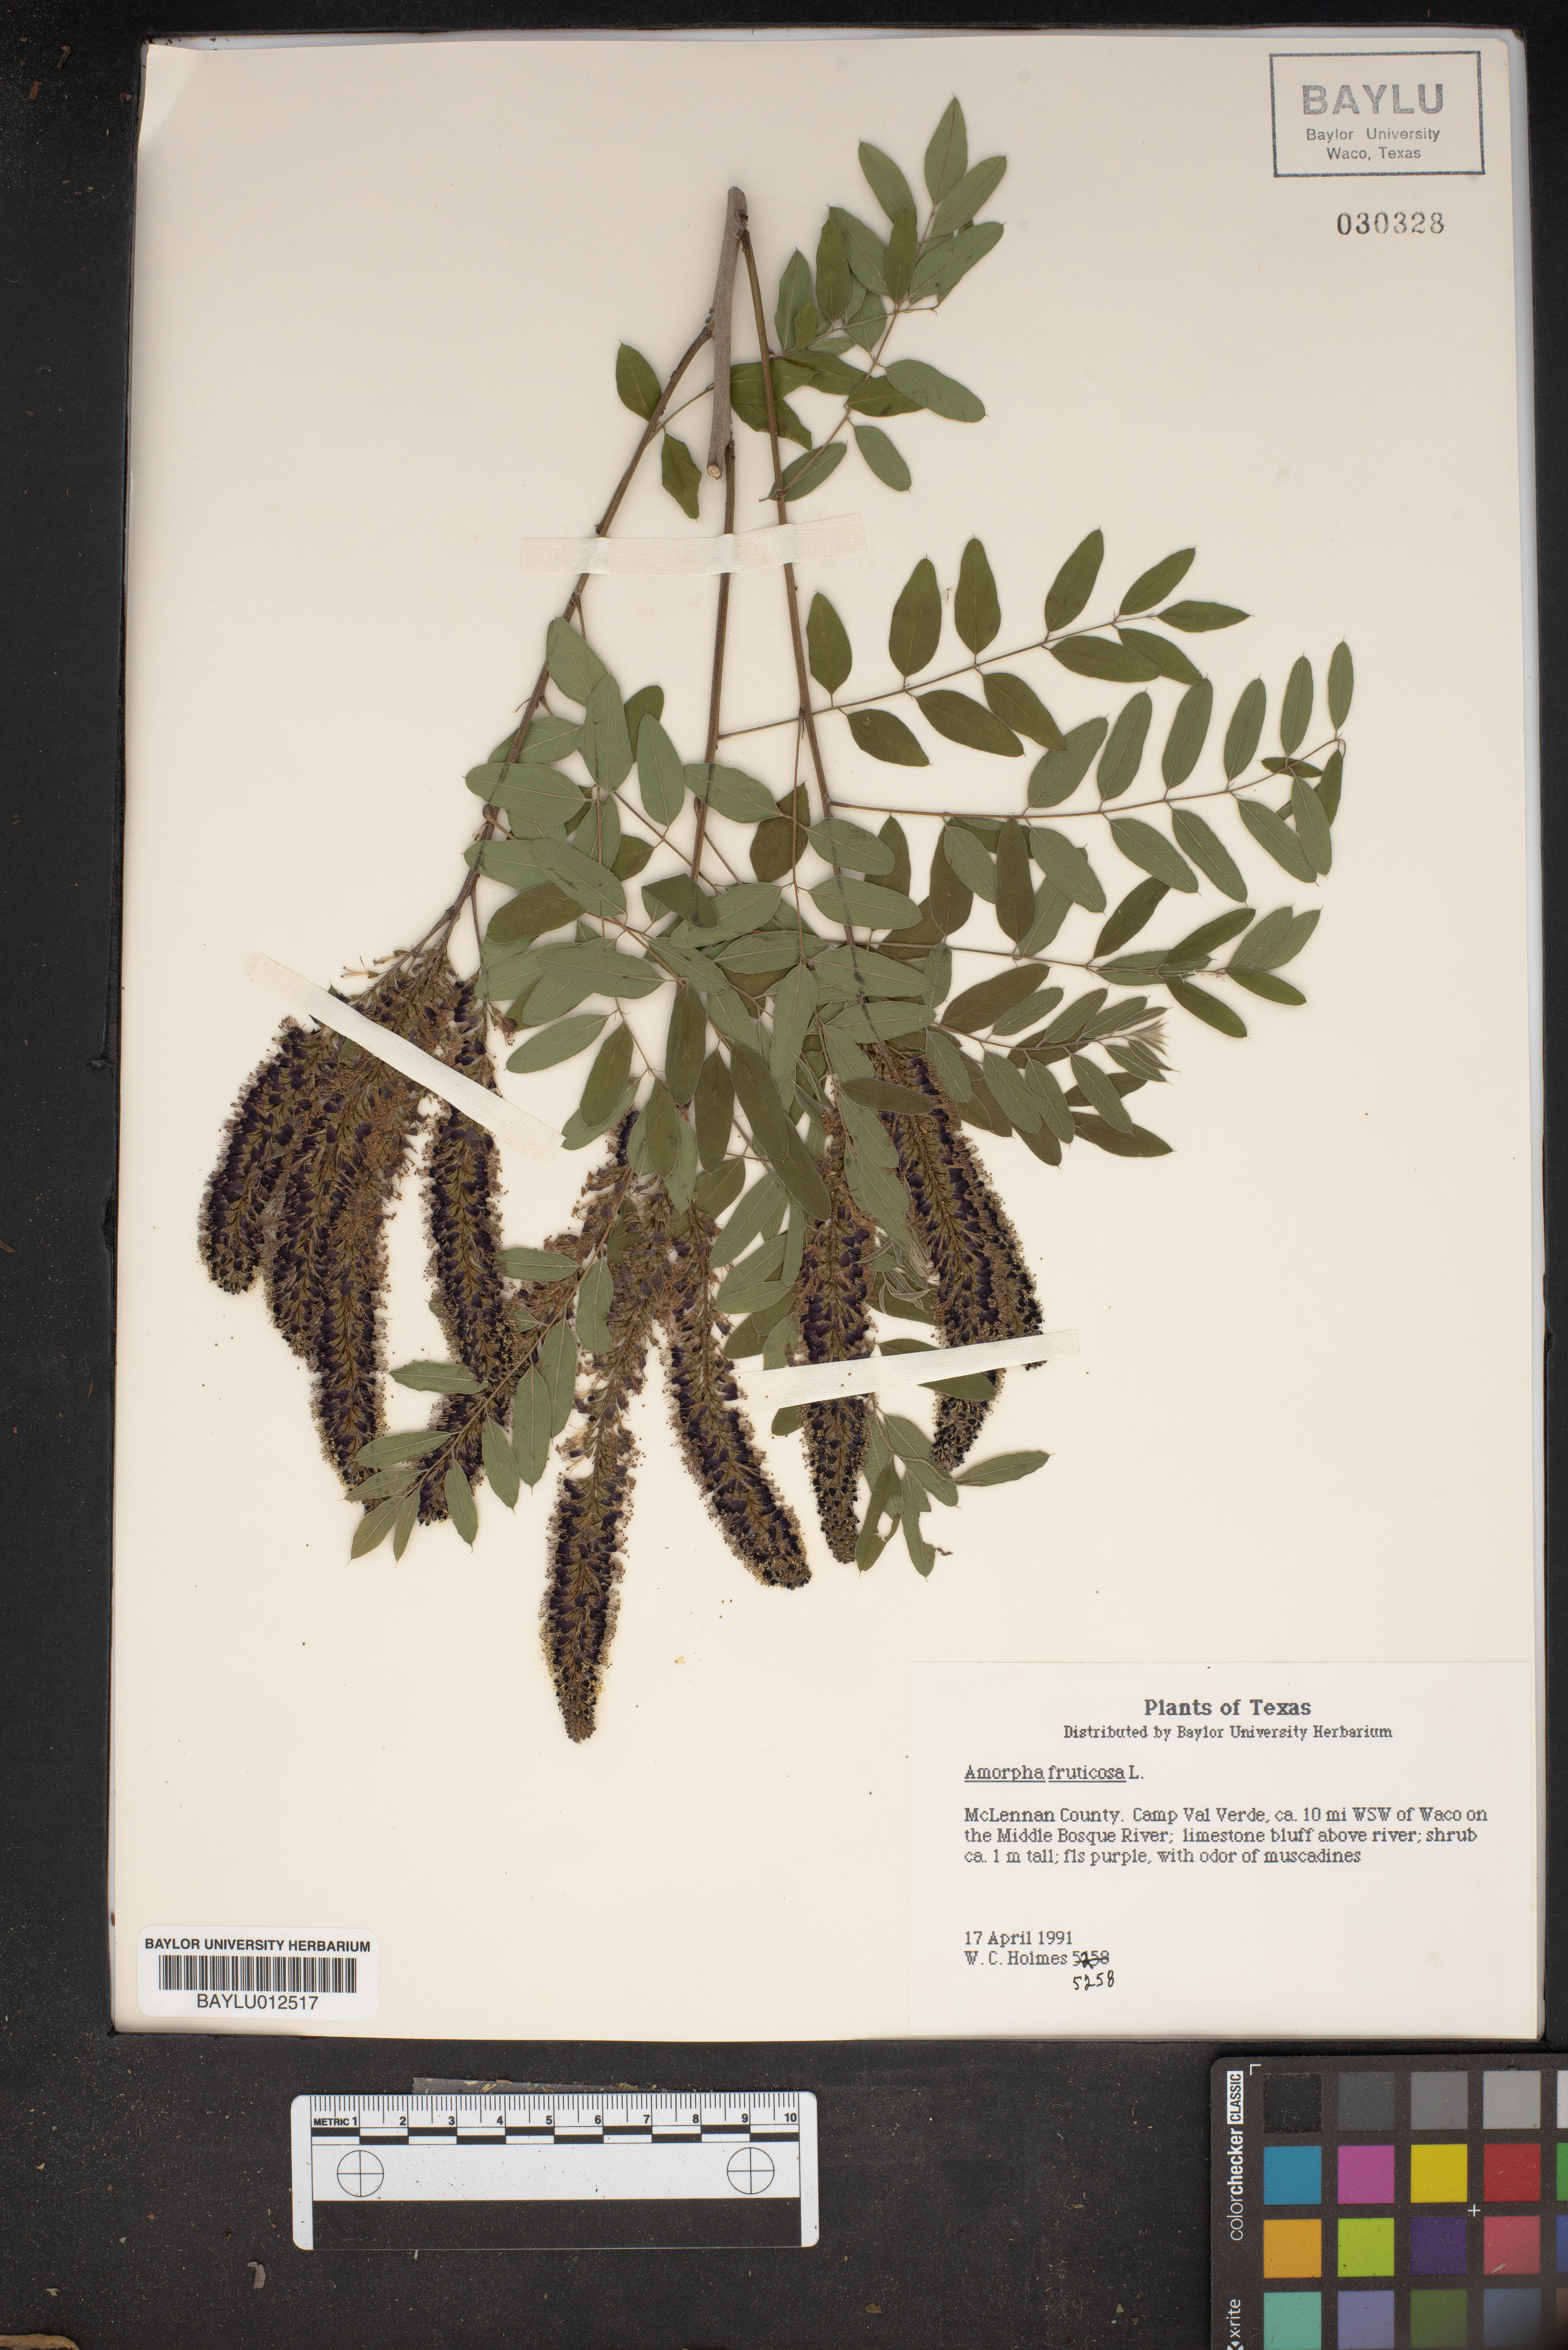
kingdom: Plantae
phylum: Tracheophyta
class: Magnoliopsida
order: Fabales
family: Fabaceae
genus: Amorpha
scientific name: Amorpha fruticosa
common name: False indigo
